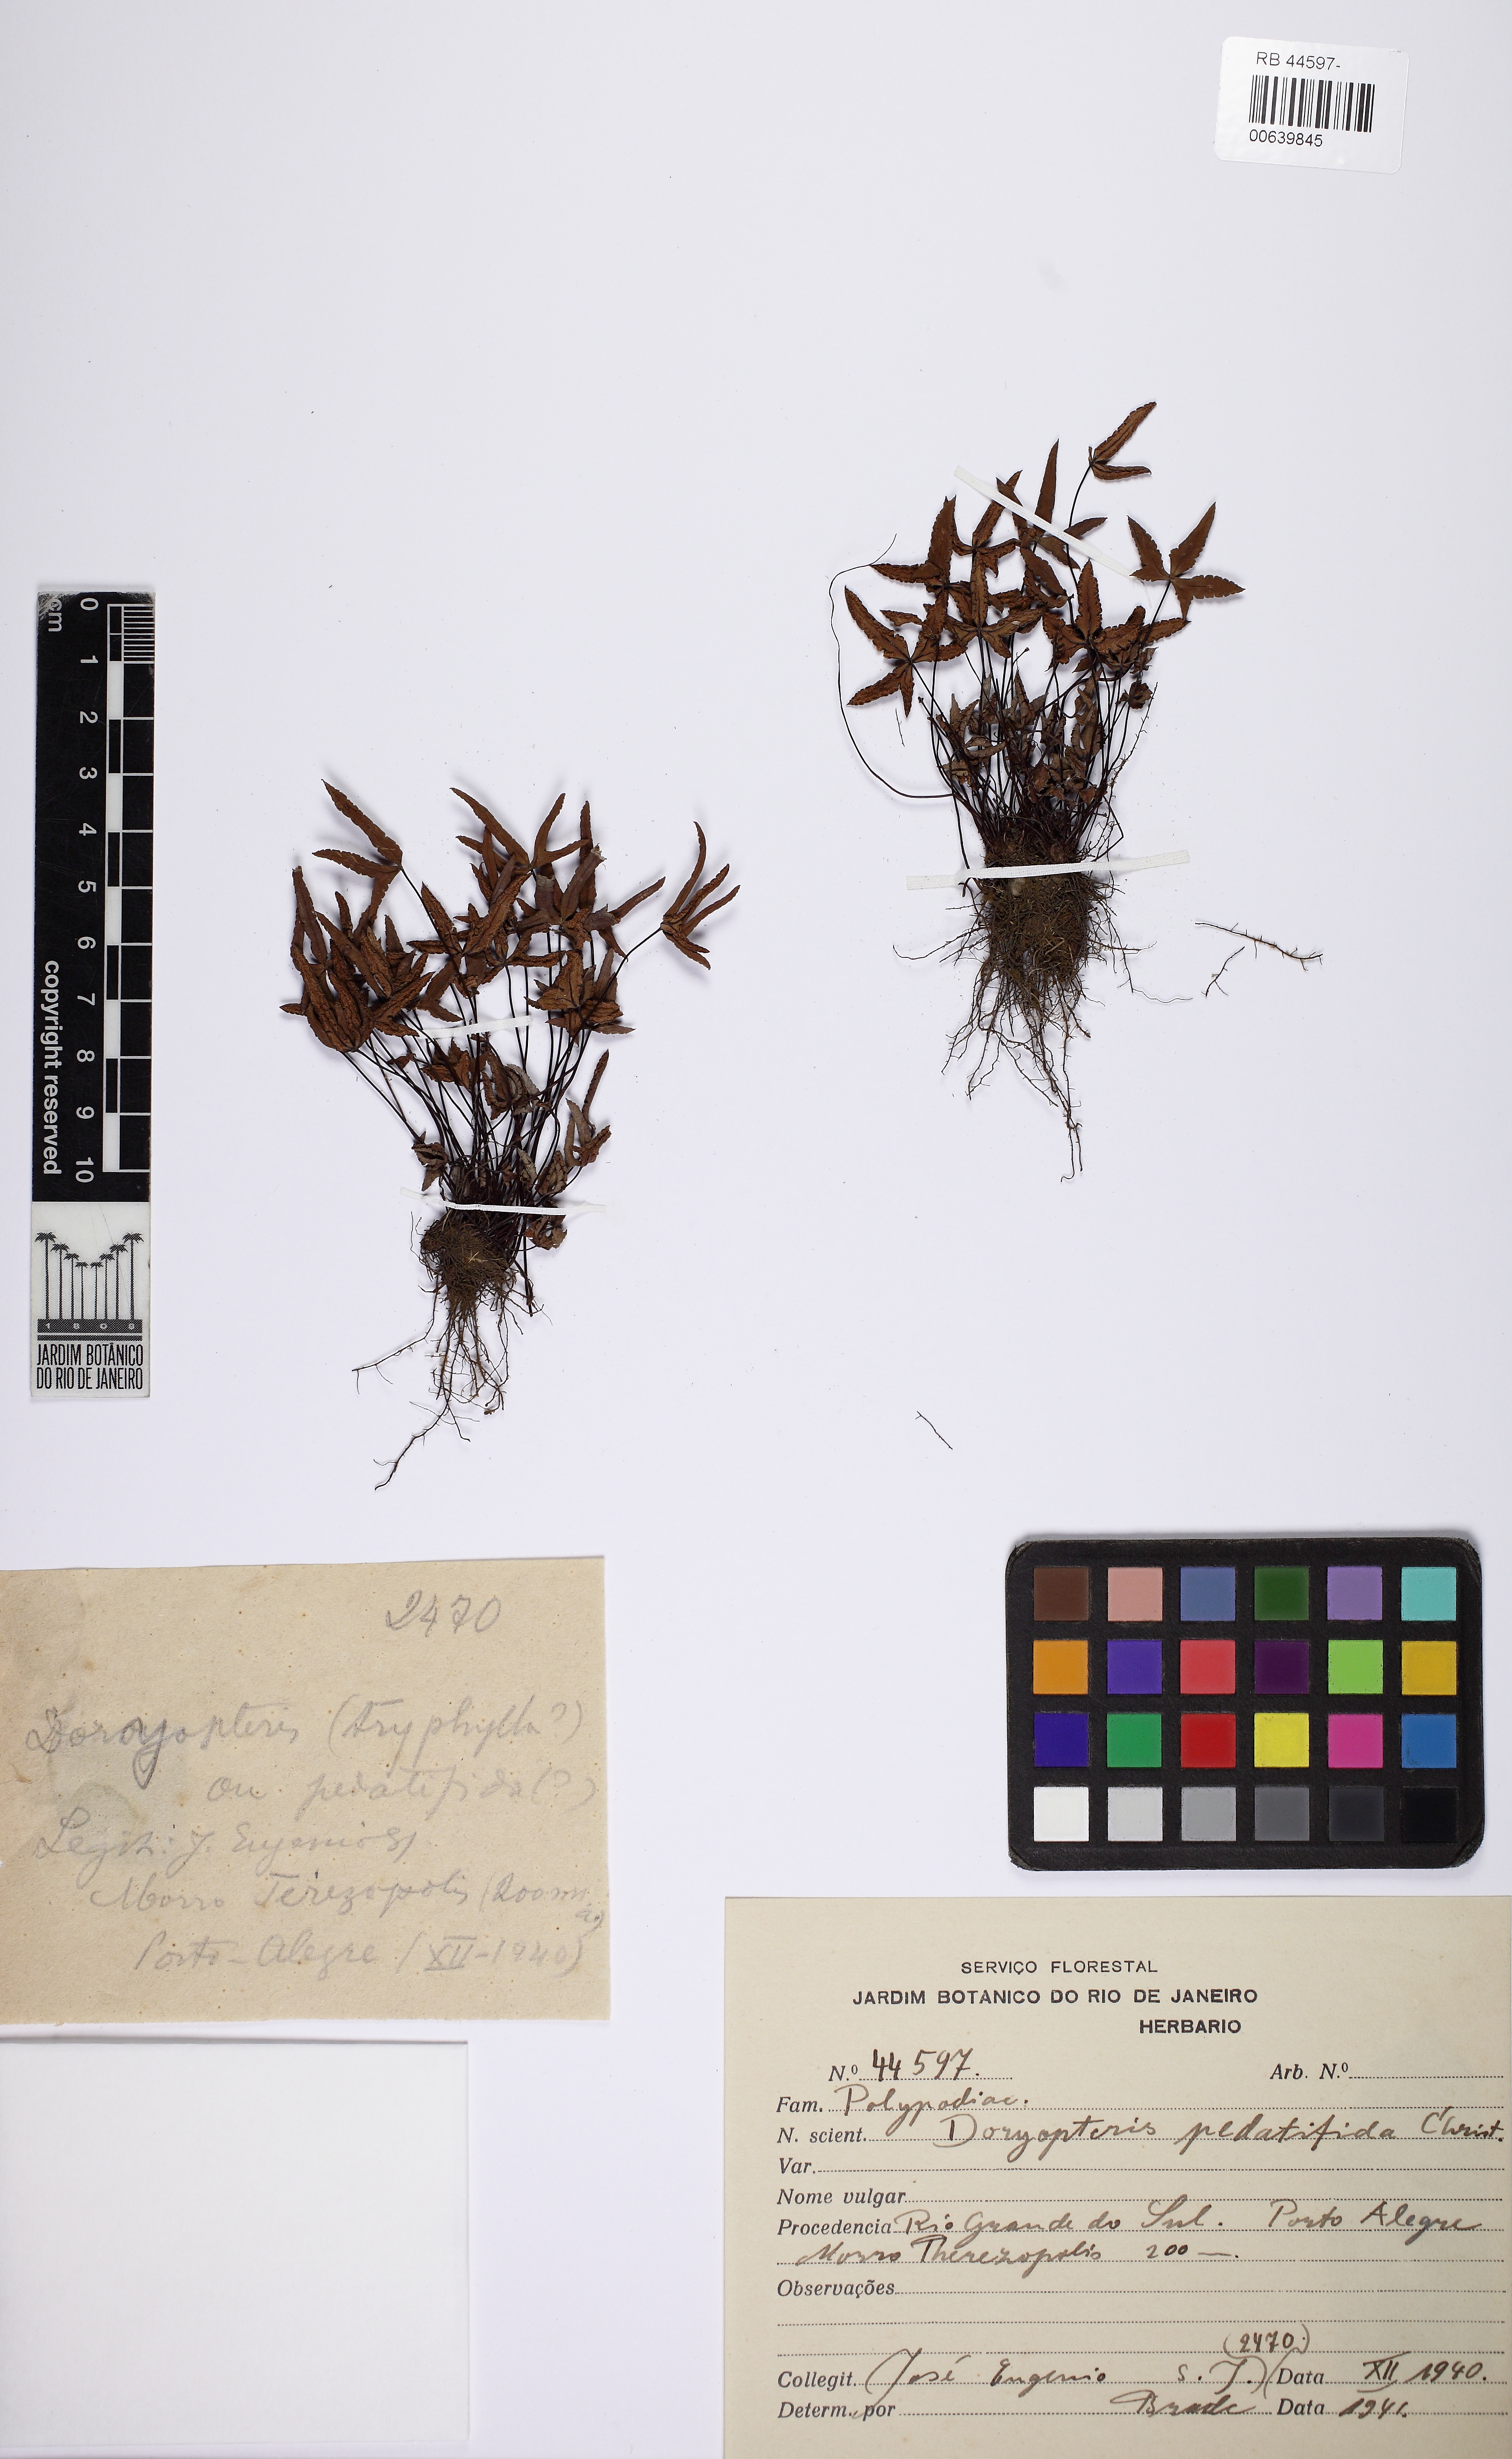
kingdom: Plantae
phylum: Tracheophyta
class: Polypodiopsida
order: Polypodiales
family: Pteridaceae
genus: Doryopteris
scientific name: Doryopteris triphylla
